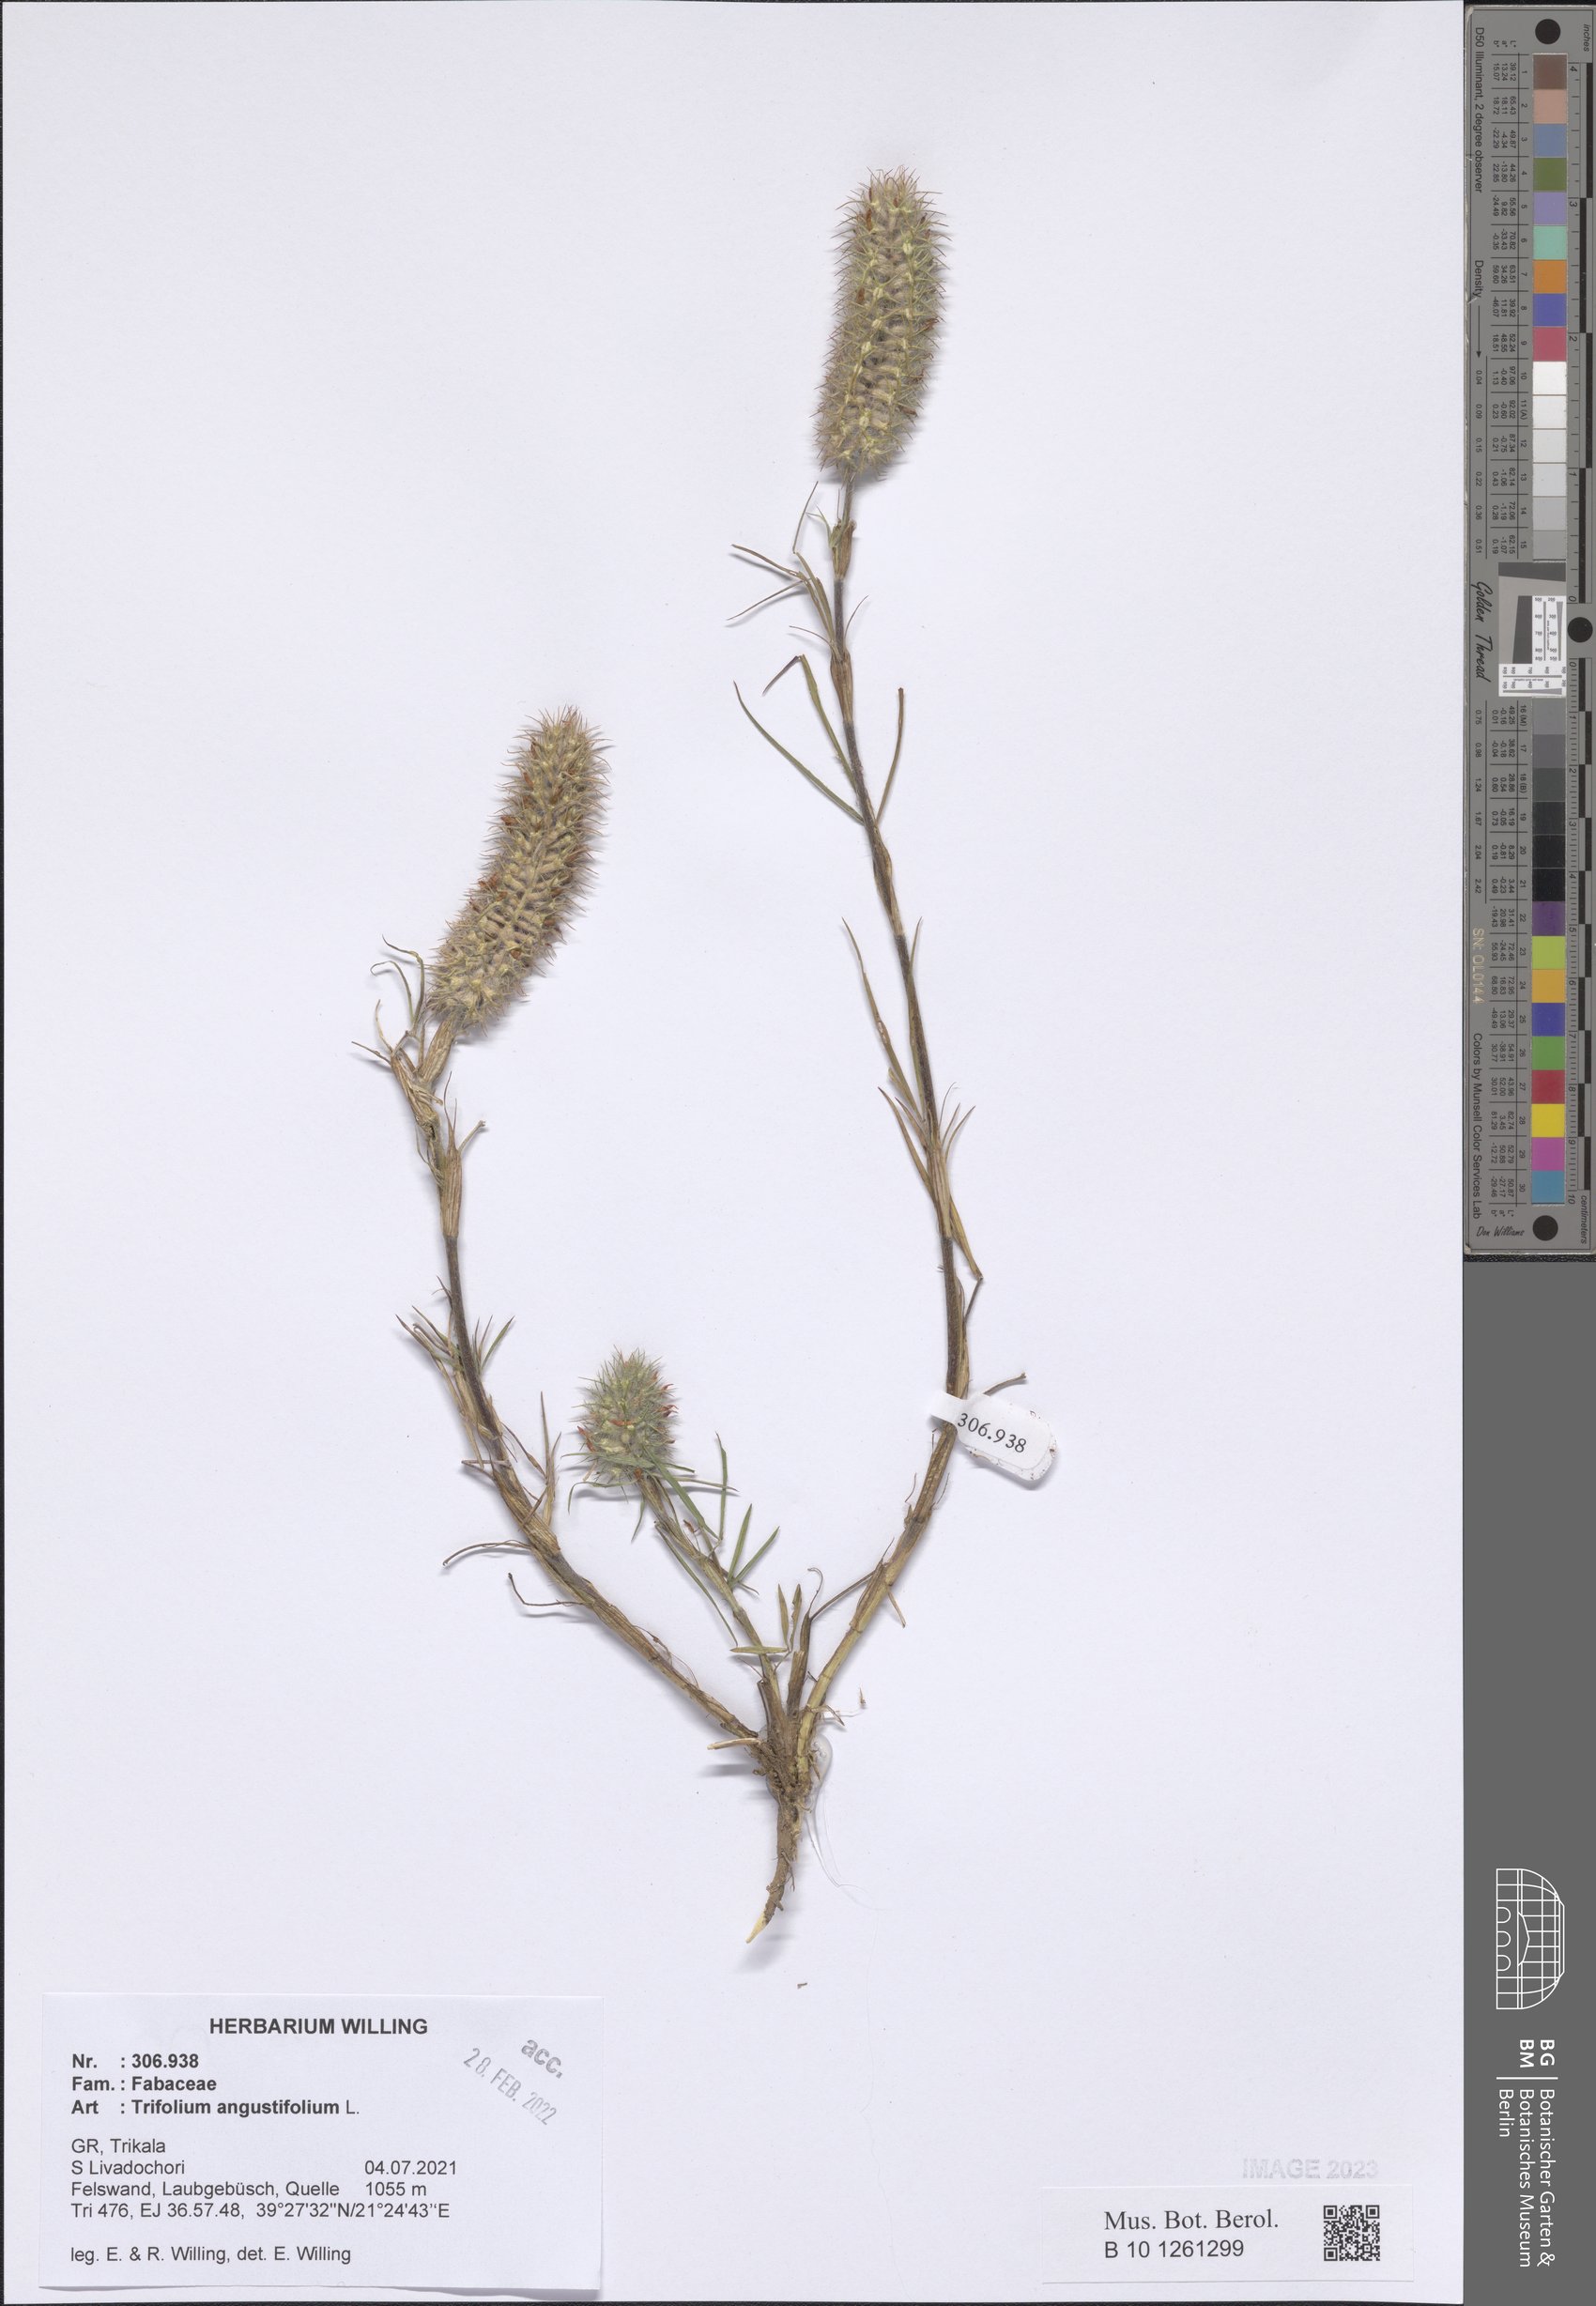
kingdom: Plantae
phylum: Tracheophyta
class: Magnoliopsida
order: Fabales
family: Fabaceae
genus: Trifolium
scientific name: Trifolium angustifolium
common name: Narrow clover
